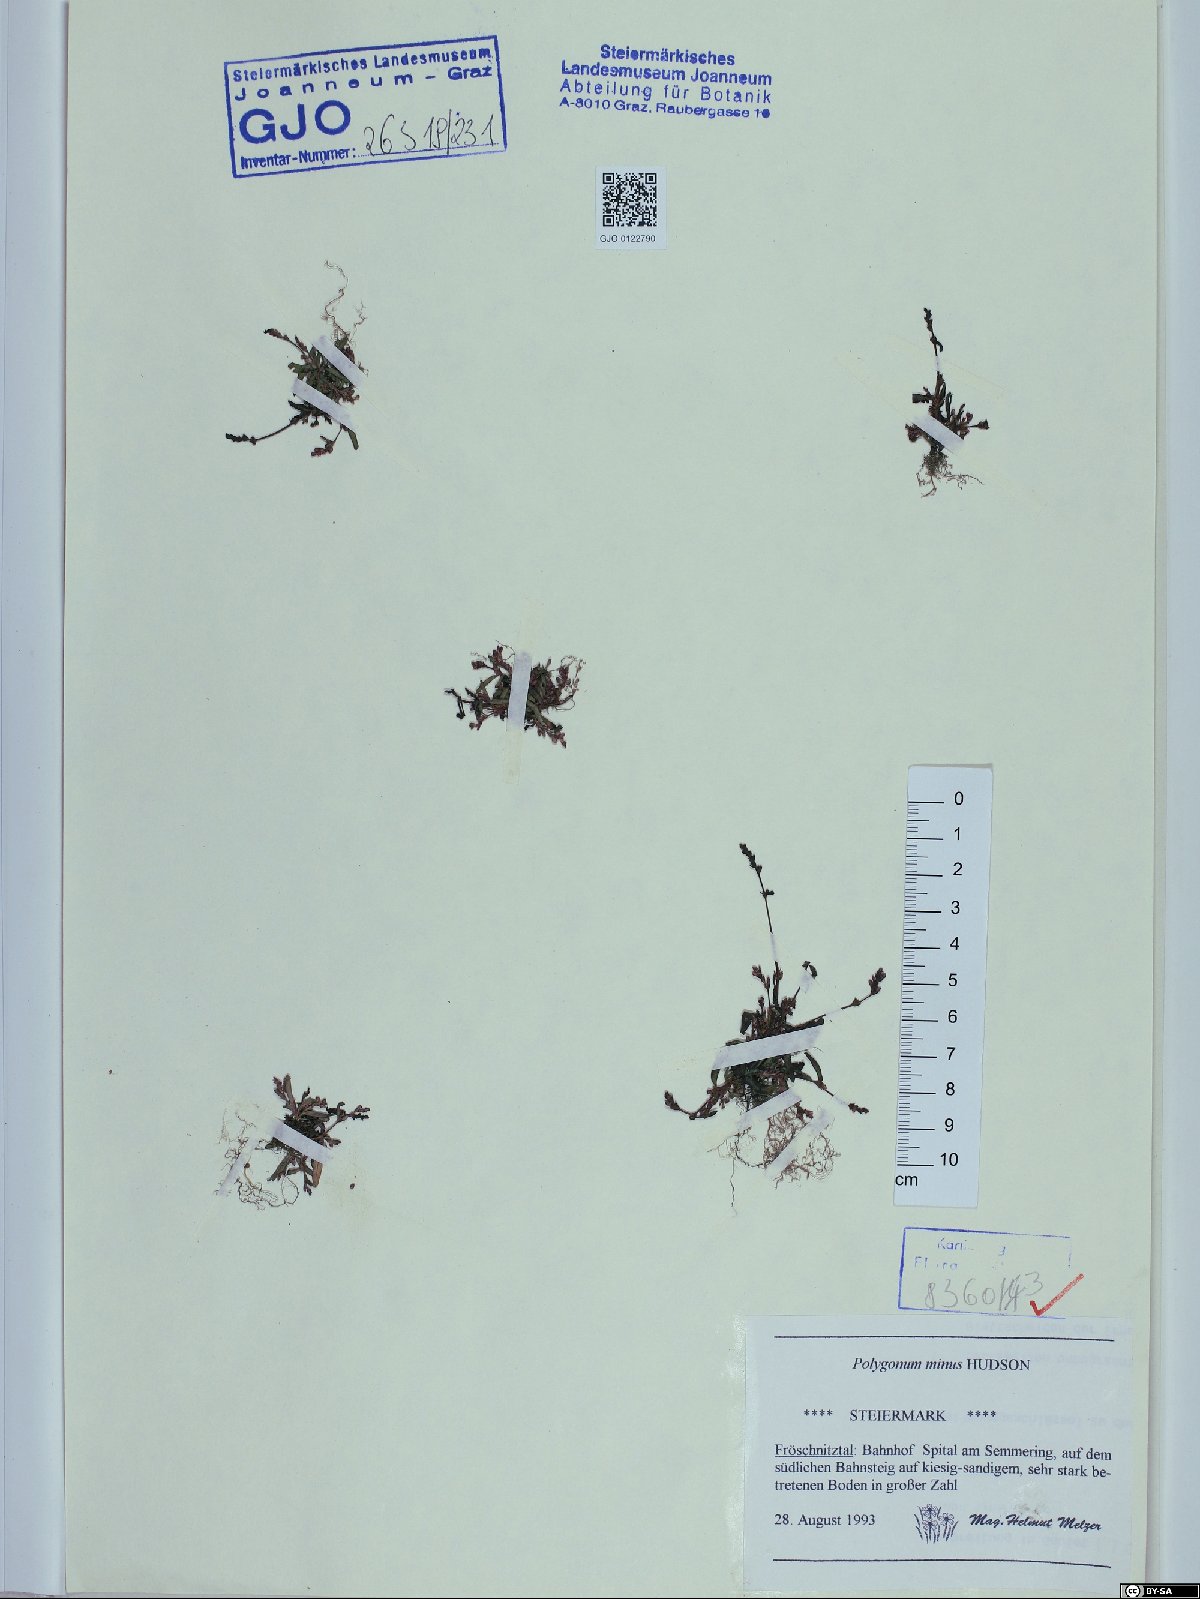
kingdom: Plantae
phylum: Tracheophyta
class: Magnoliopsida
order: Caryophyllales
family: Polygonaceae
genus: Persicaria
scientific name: Persicaria minor
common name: Small water-pepper
